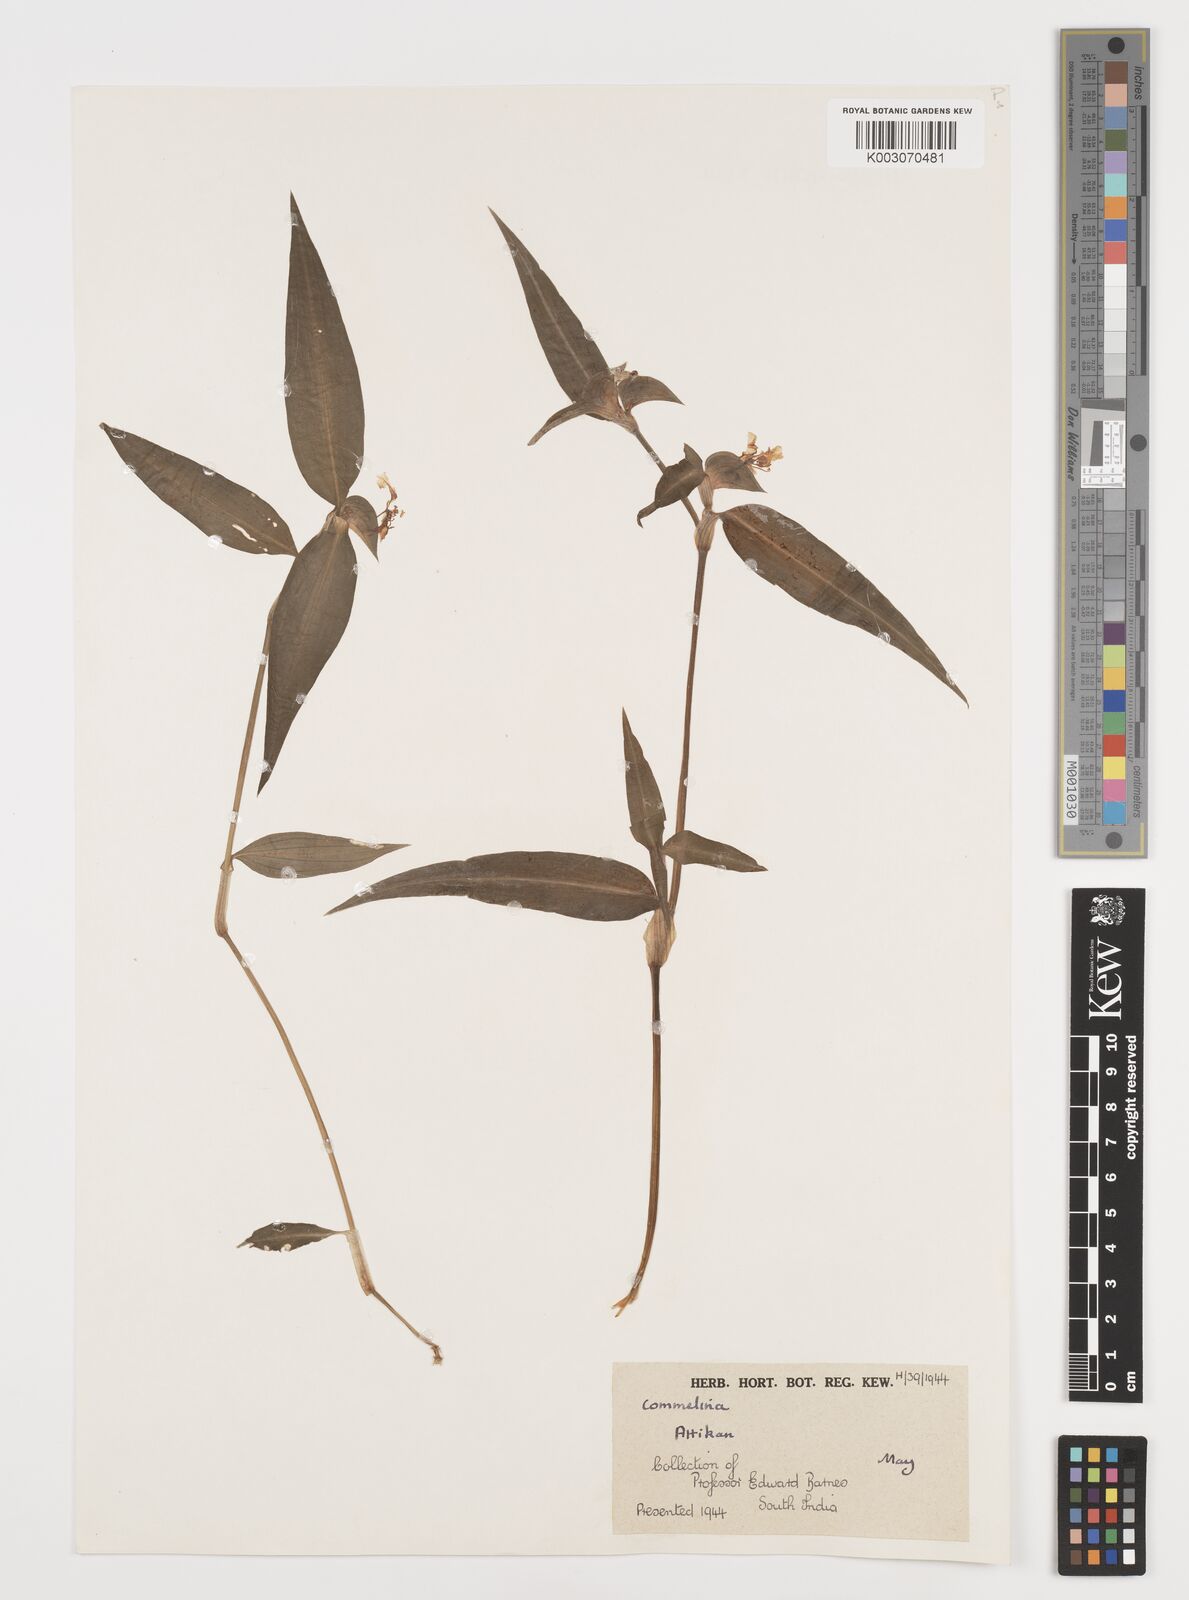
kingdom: Plantae
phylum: Tracheophyta
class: Liliopsida
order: Commelinales
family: Commelinaceae
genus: Commelina
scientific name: Commelina
